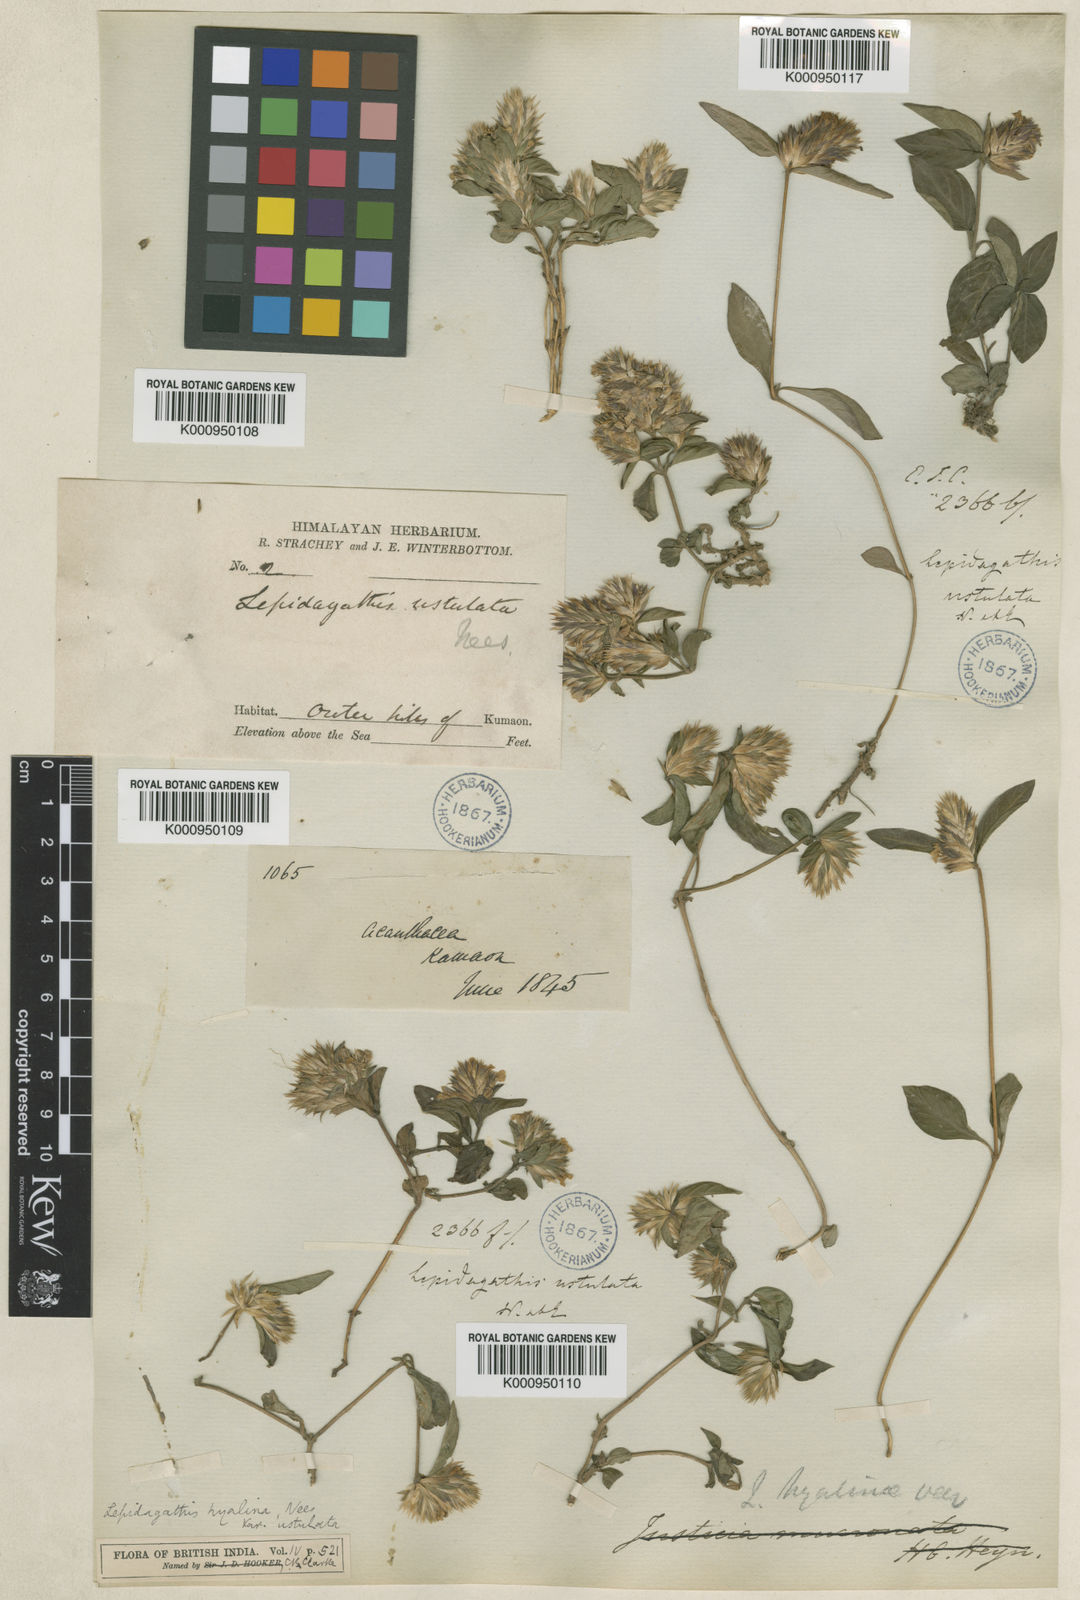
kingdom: Plantae
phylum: Tracheophyta
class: Magnoliopsida
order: Lamiales
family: Acanthaceae
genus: Lepidagathis
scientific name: Lepidagathis incurva
